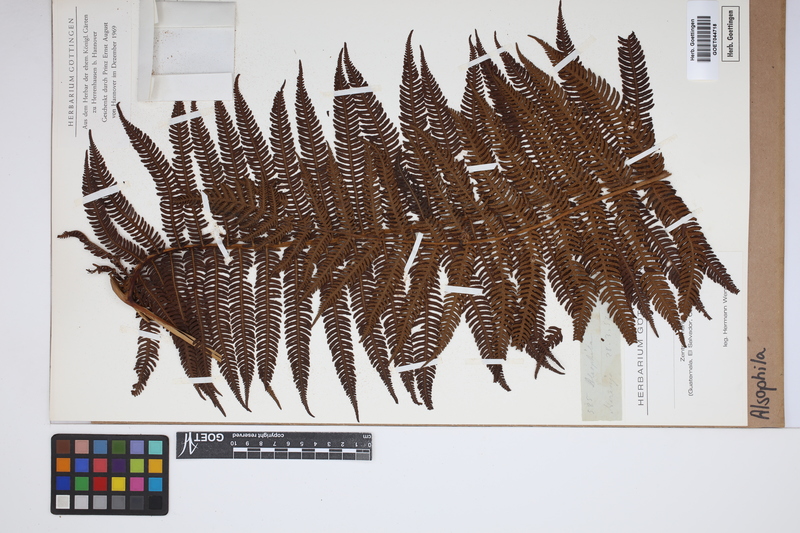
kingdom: Plantae
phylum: Tracheophyta
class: Polypodiopsida
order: Cyatheales
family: Cyatheaceae
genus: Alsophila
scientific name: Alsophila
